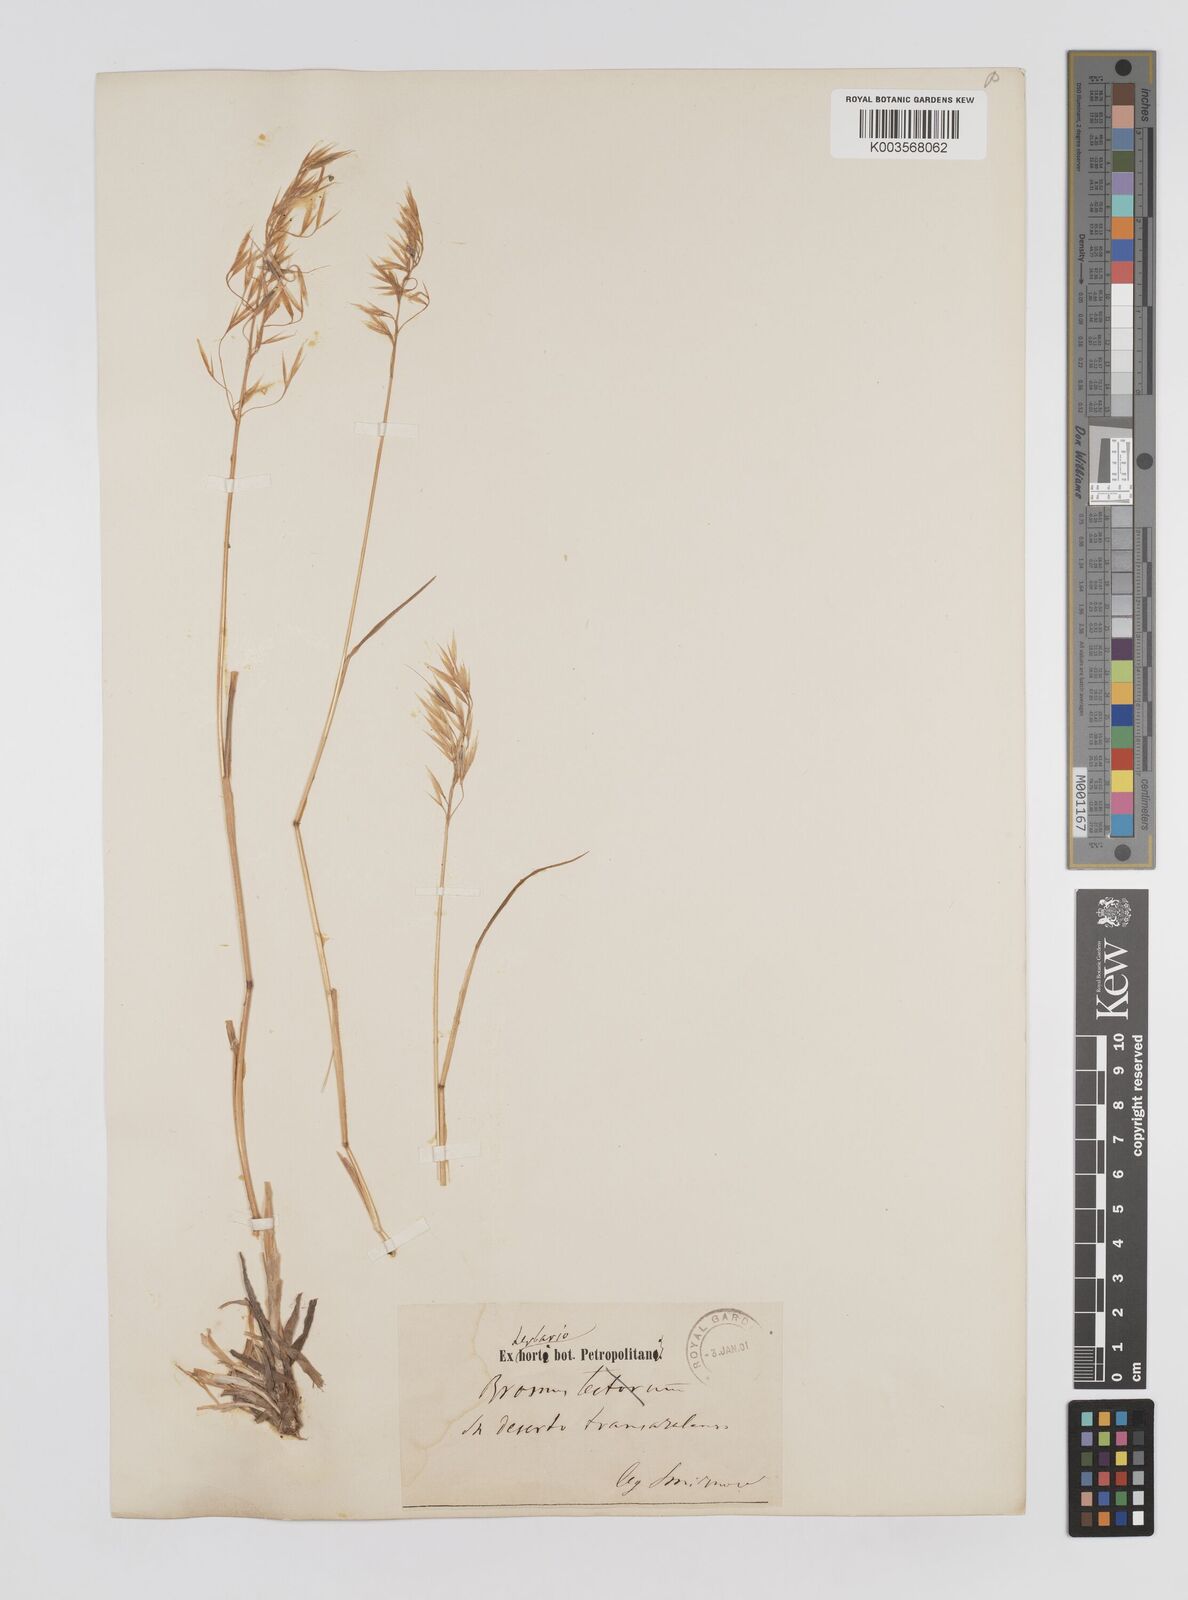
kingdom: Plantae
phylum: Tracheophyta
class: Liliopsida
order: Poales
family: Poaceae
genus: Bromus
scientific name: Bromus erectus
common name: Erect brome
